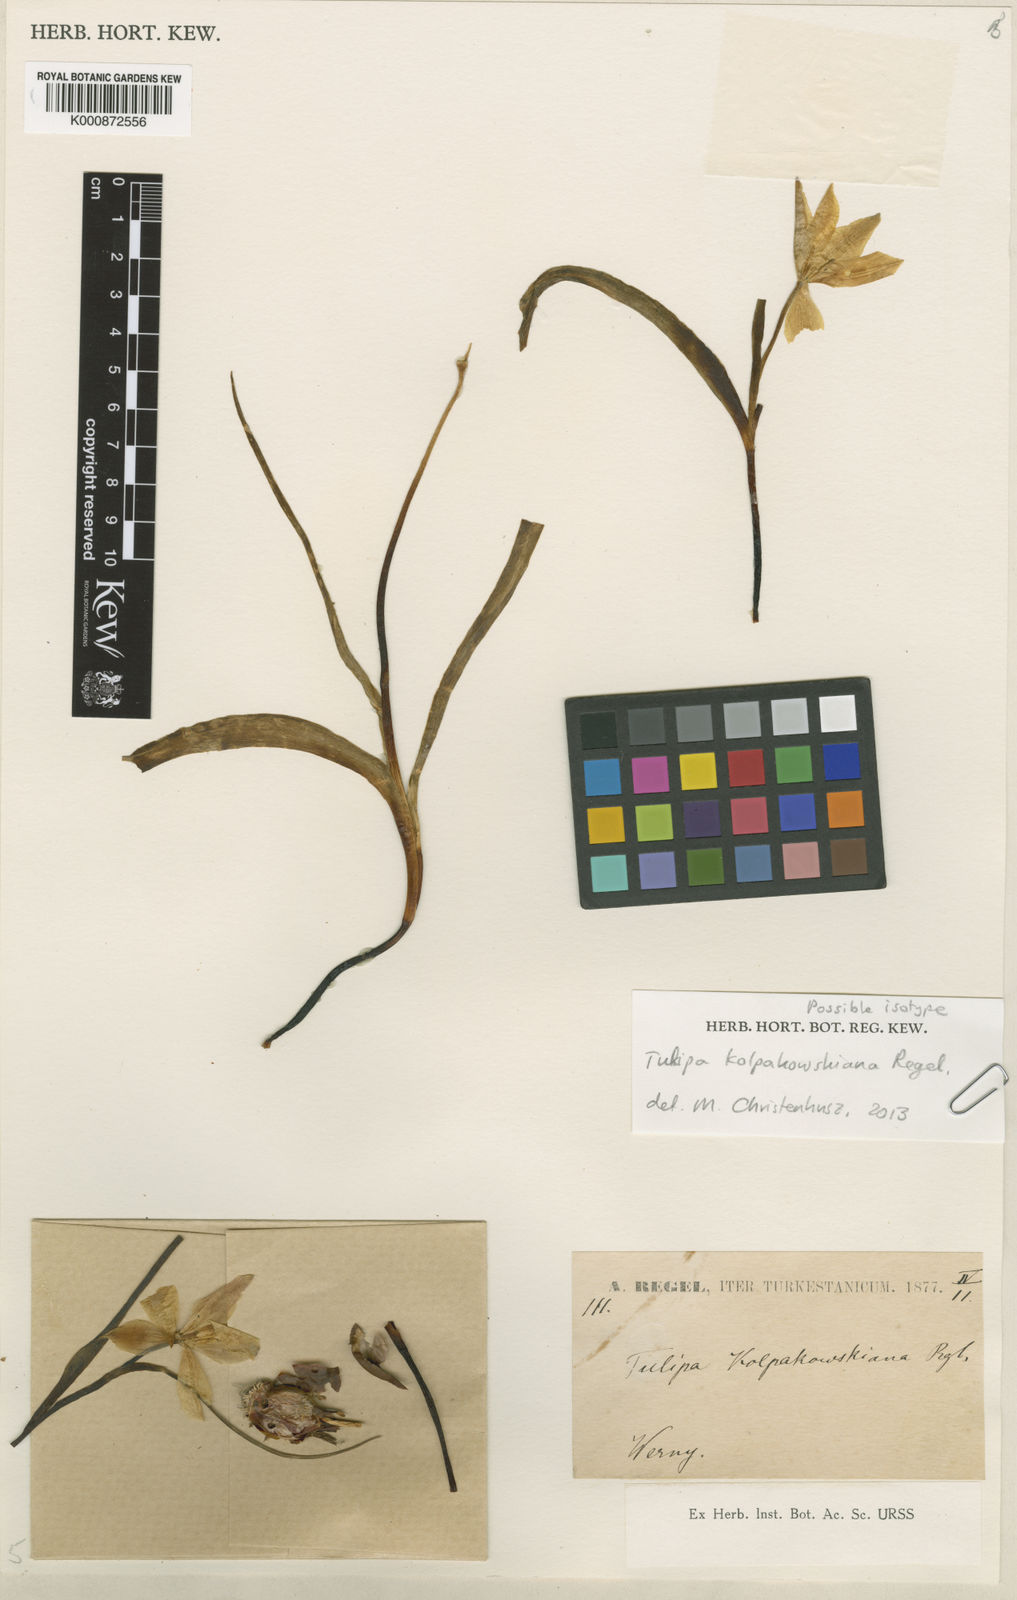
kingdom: Plantae
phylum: Tracheophyta
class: Liliopsida
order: Liliales
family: Liliaceae
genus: Tulipa
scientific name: Tulipa kolpakowskiana
